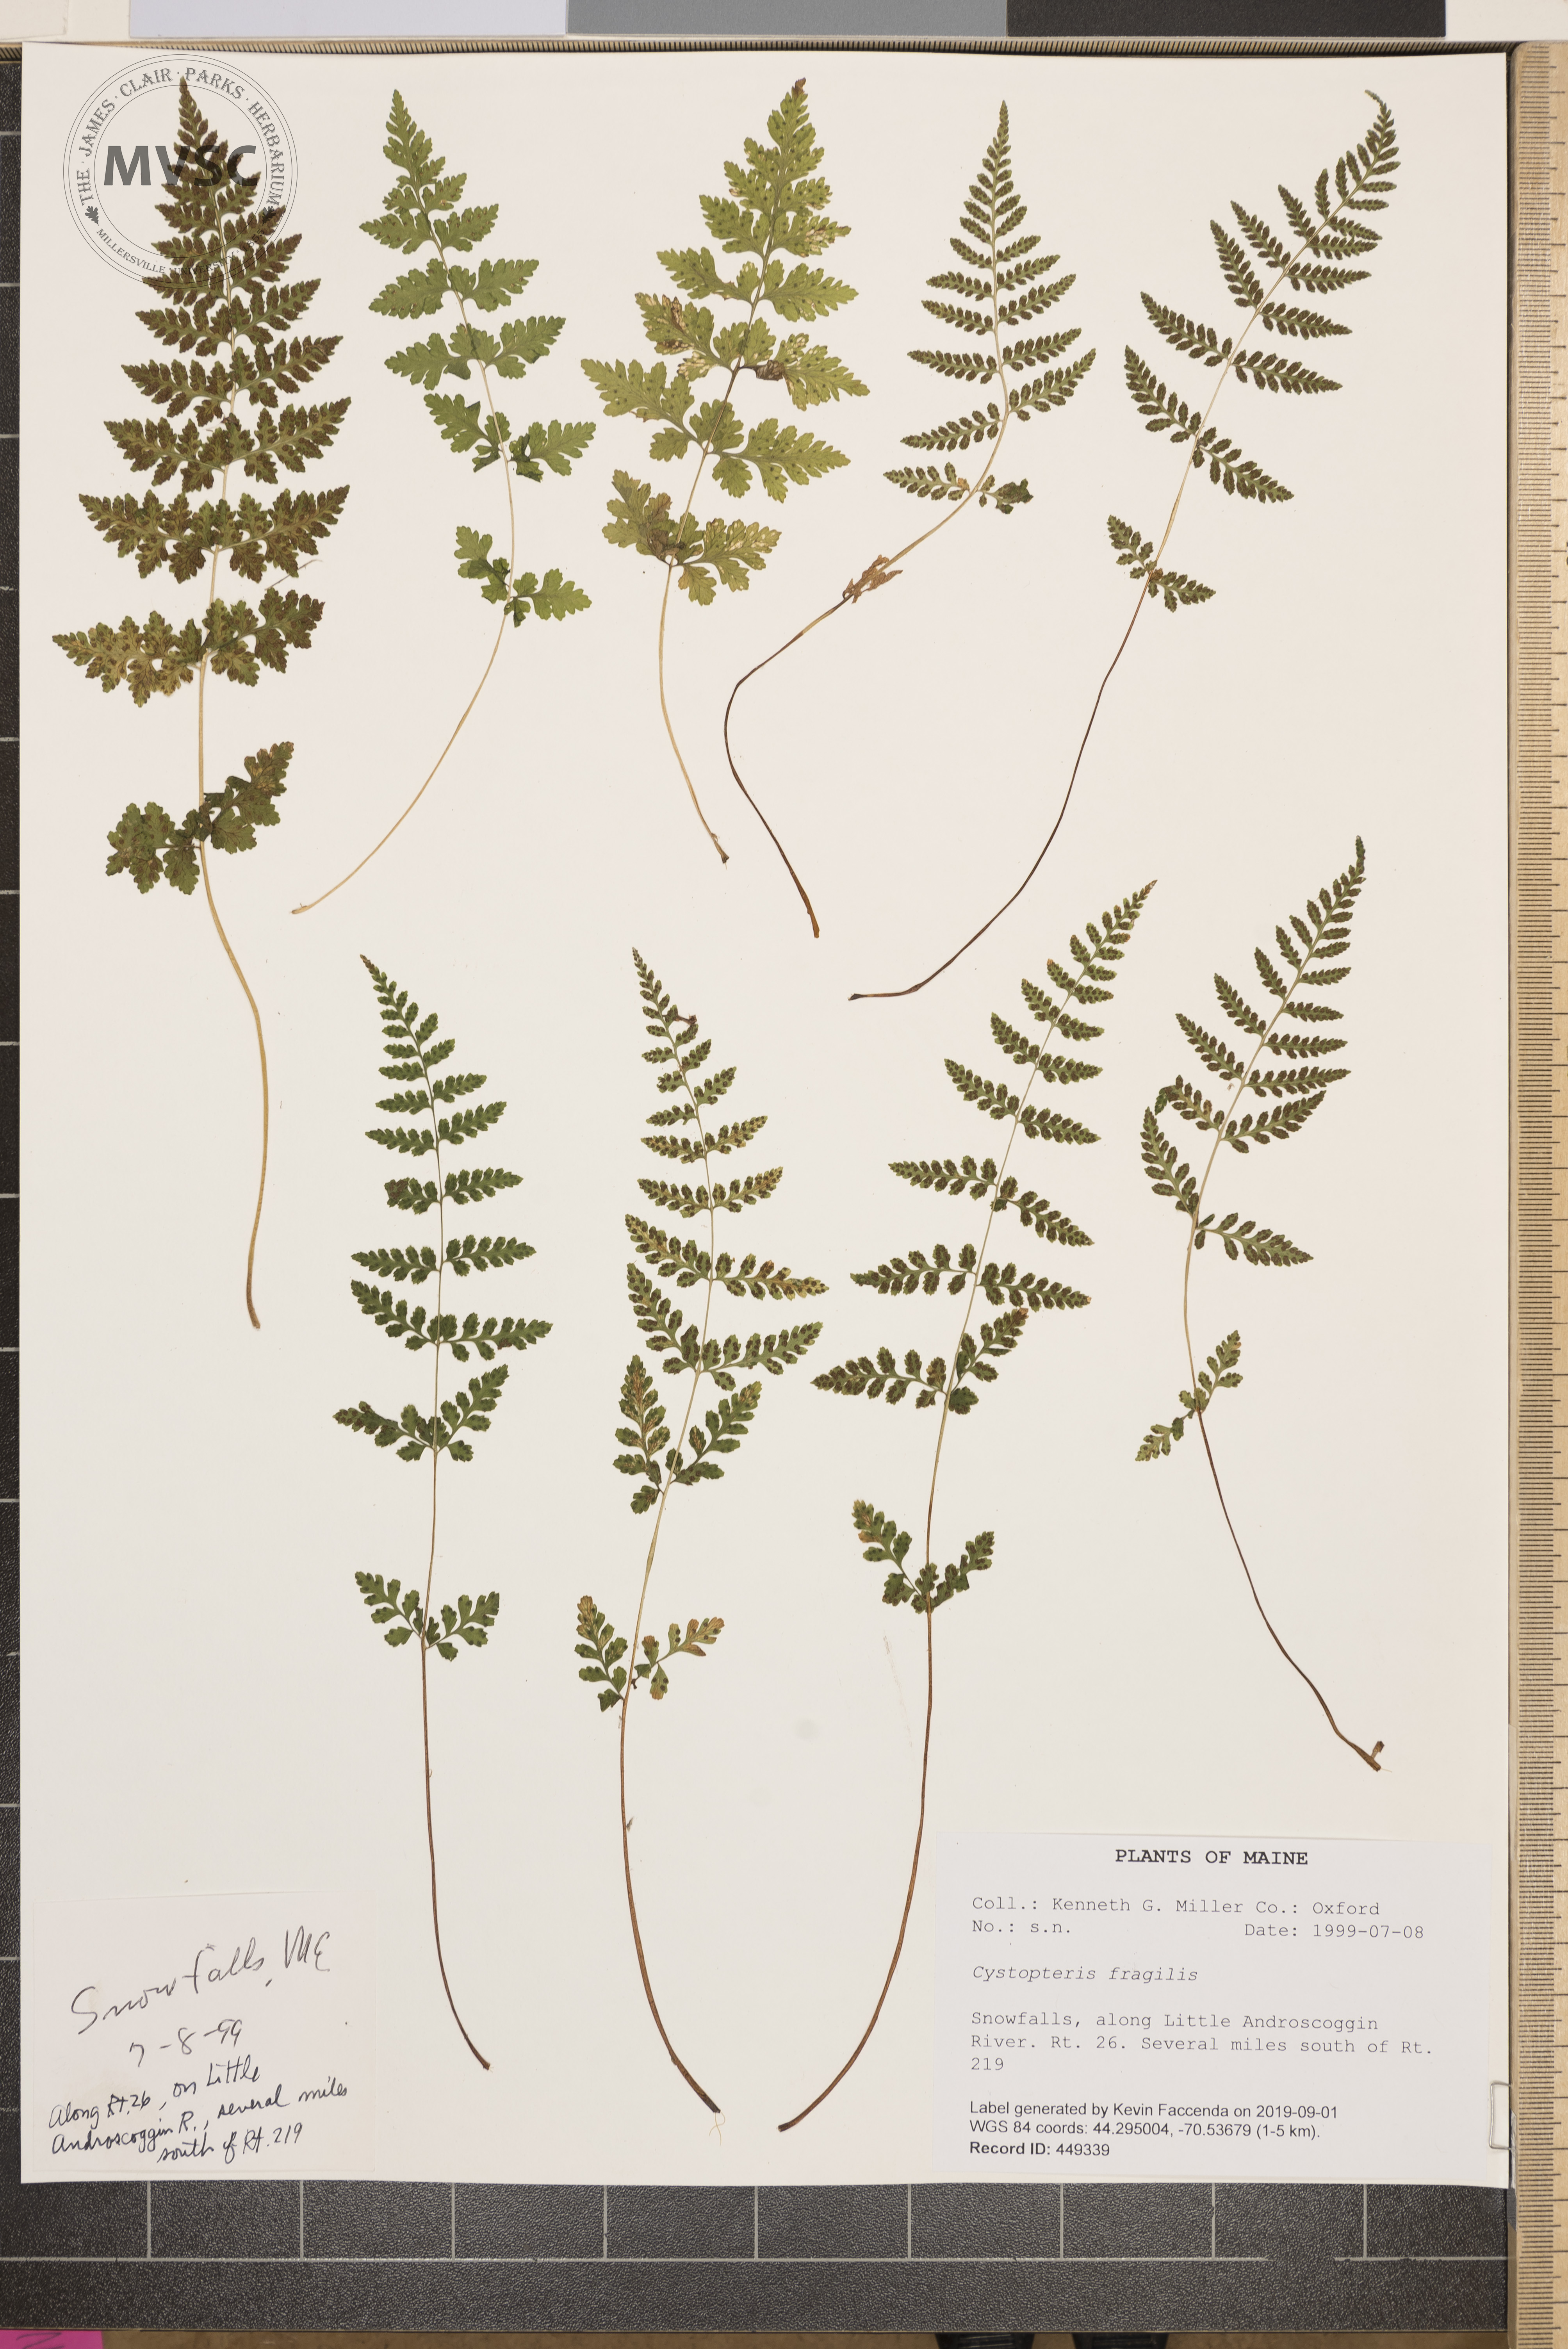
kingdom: Plantae
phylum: Tracheophyta
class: Polypodiopsida
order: Polypodiales
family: Cystopteridaceae
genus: Cystopteris
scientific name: Cystopteris fragilis
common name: Brittle bladder fern
